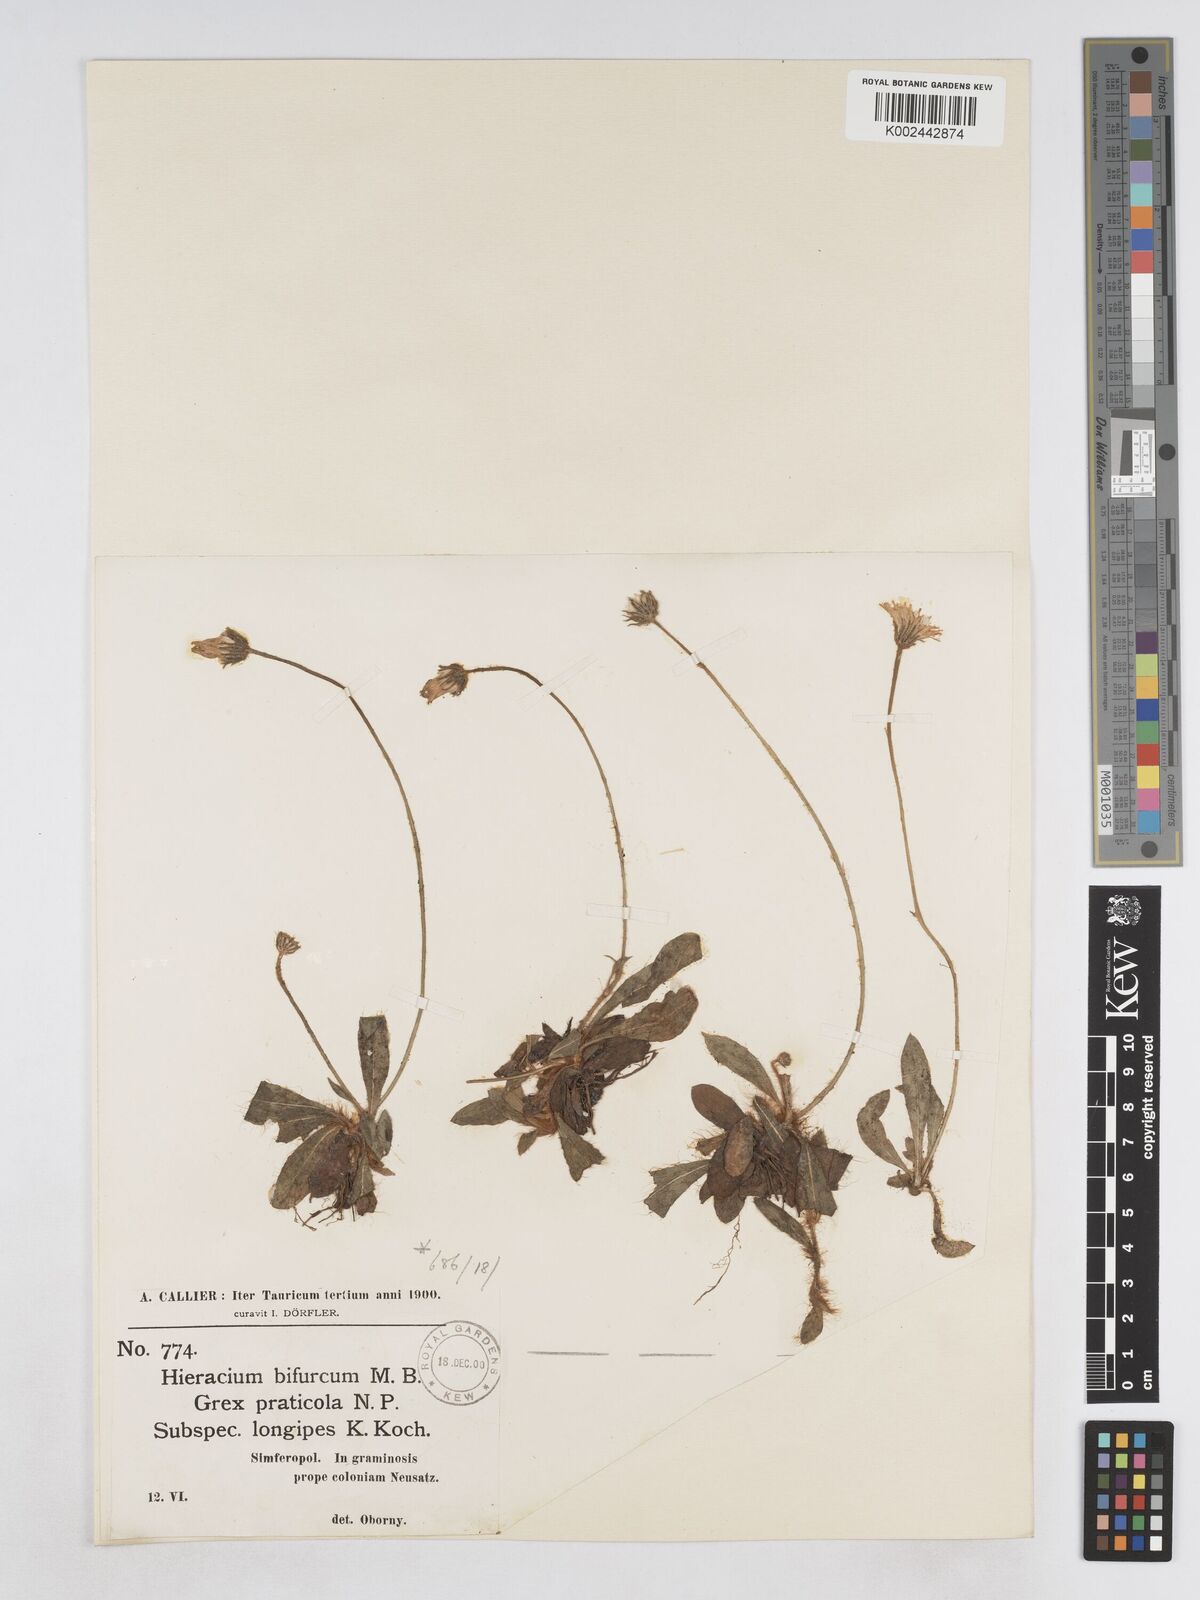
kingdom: Plantae
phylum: Tracheophyta
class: Magnoliopsida
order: Asterales
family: Asteraceae
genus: Pilosella
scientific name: Pilosella bifurca
